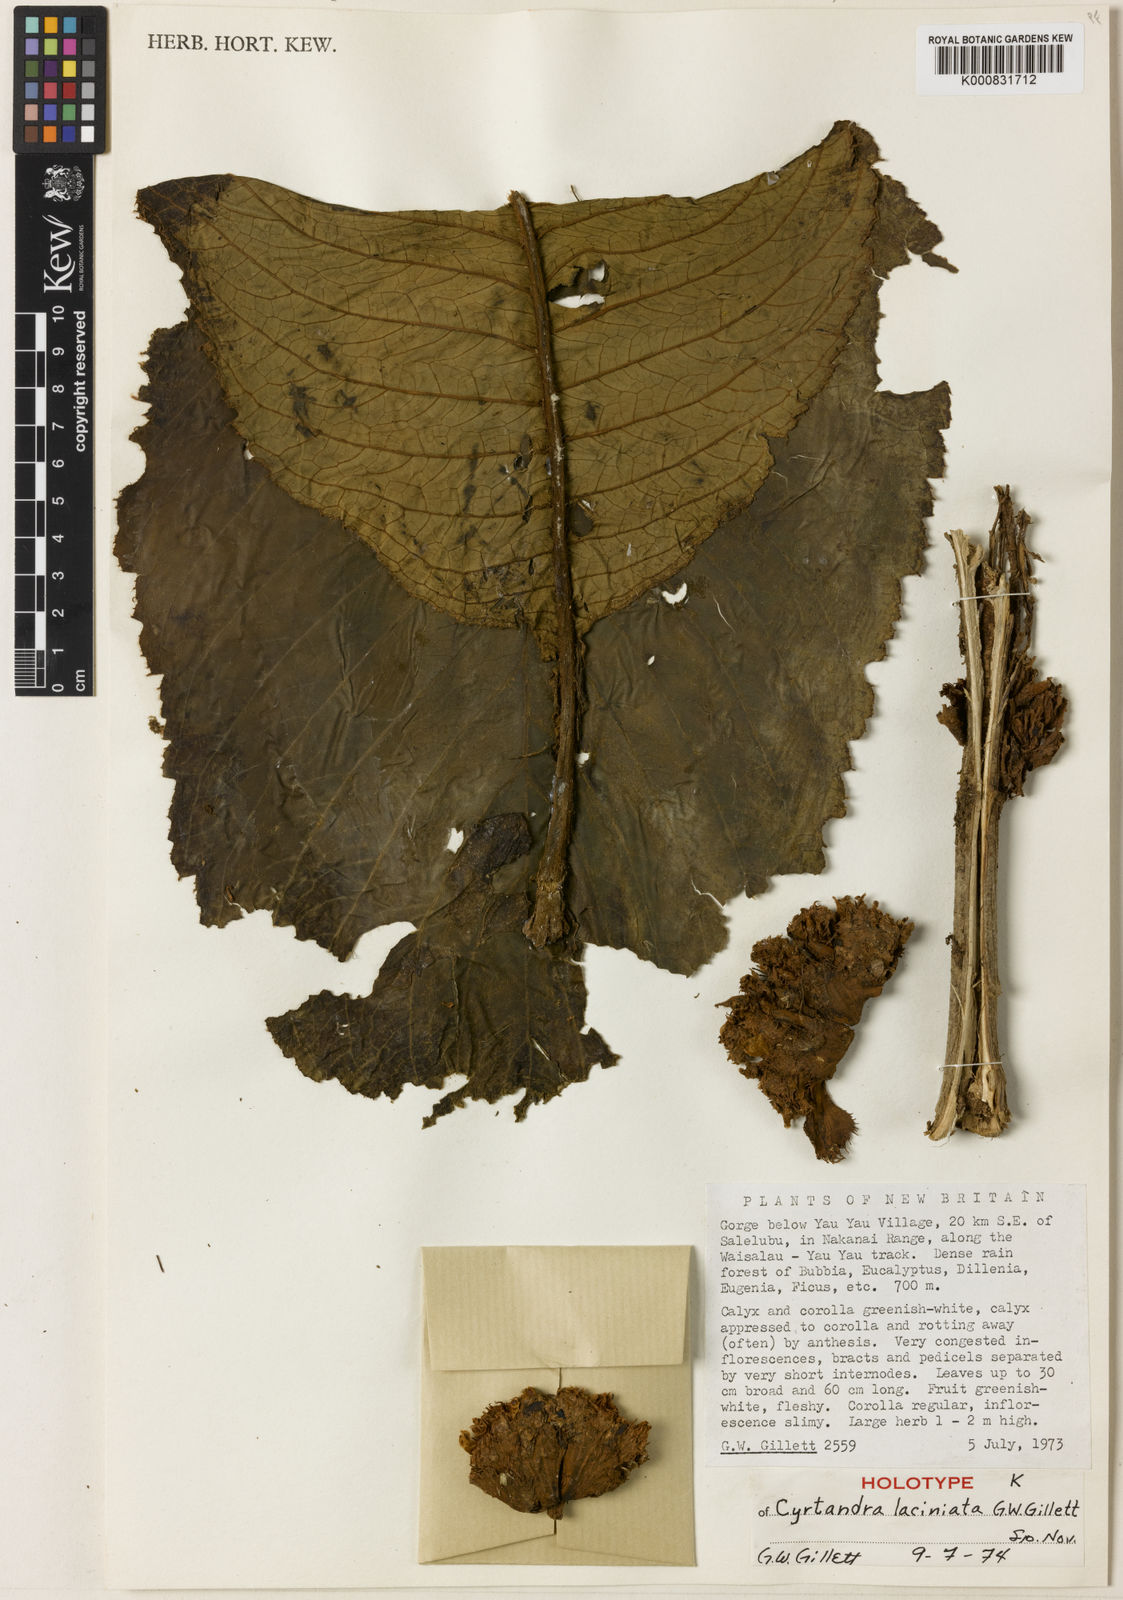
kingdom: Plantae
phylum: Tracheophyta
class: Magnoliopsida
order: Lamiales
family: Gesneriaceae
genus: Cyrtandra
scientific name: Cyrtandra laciniata
